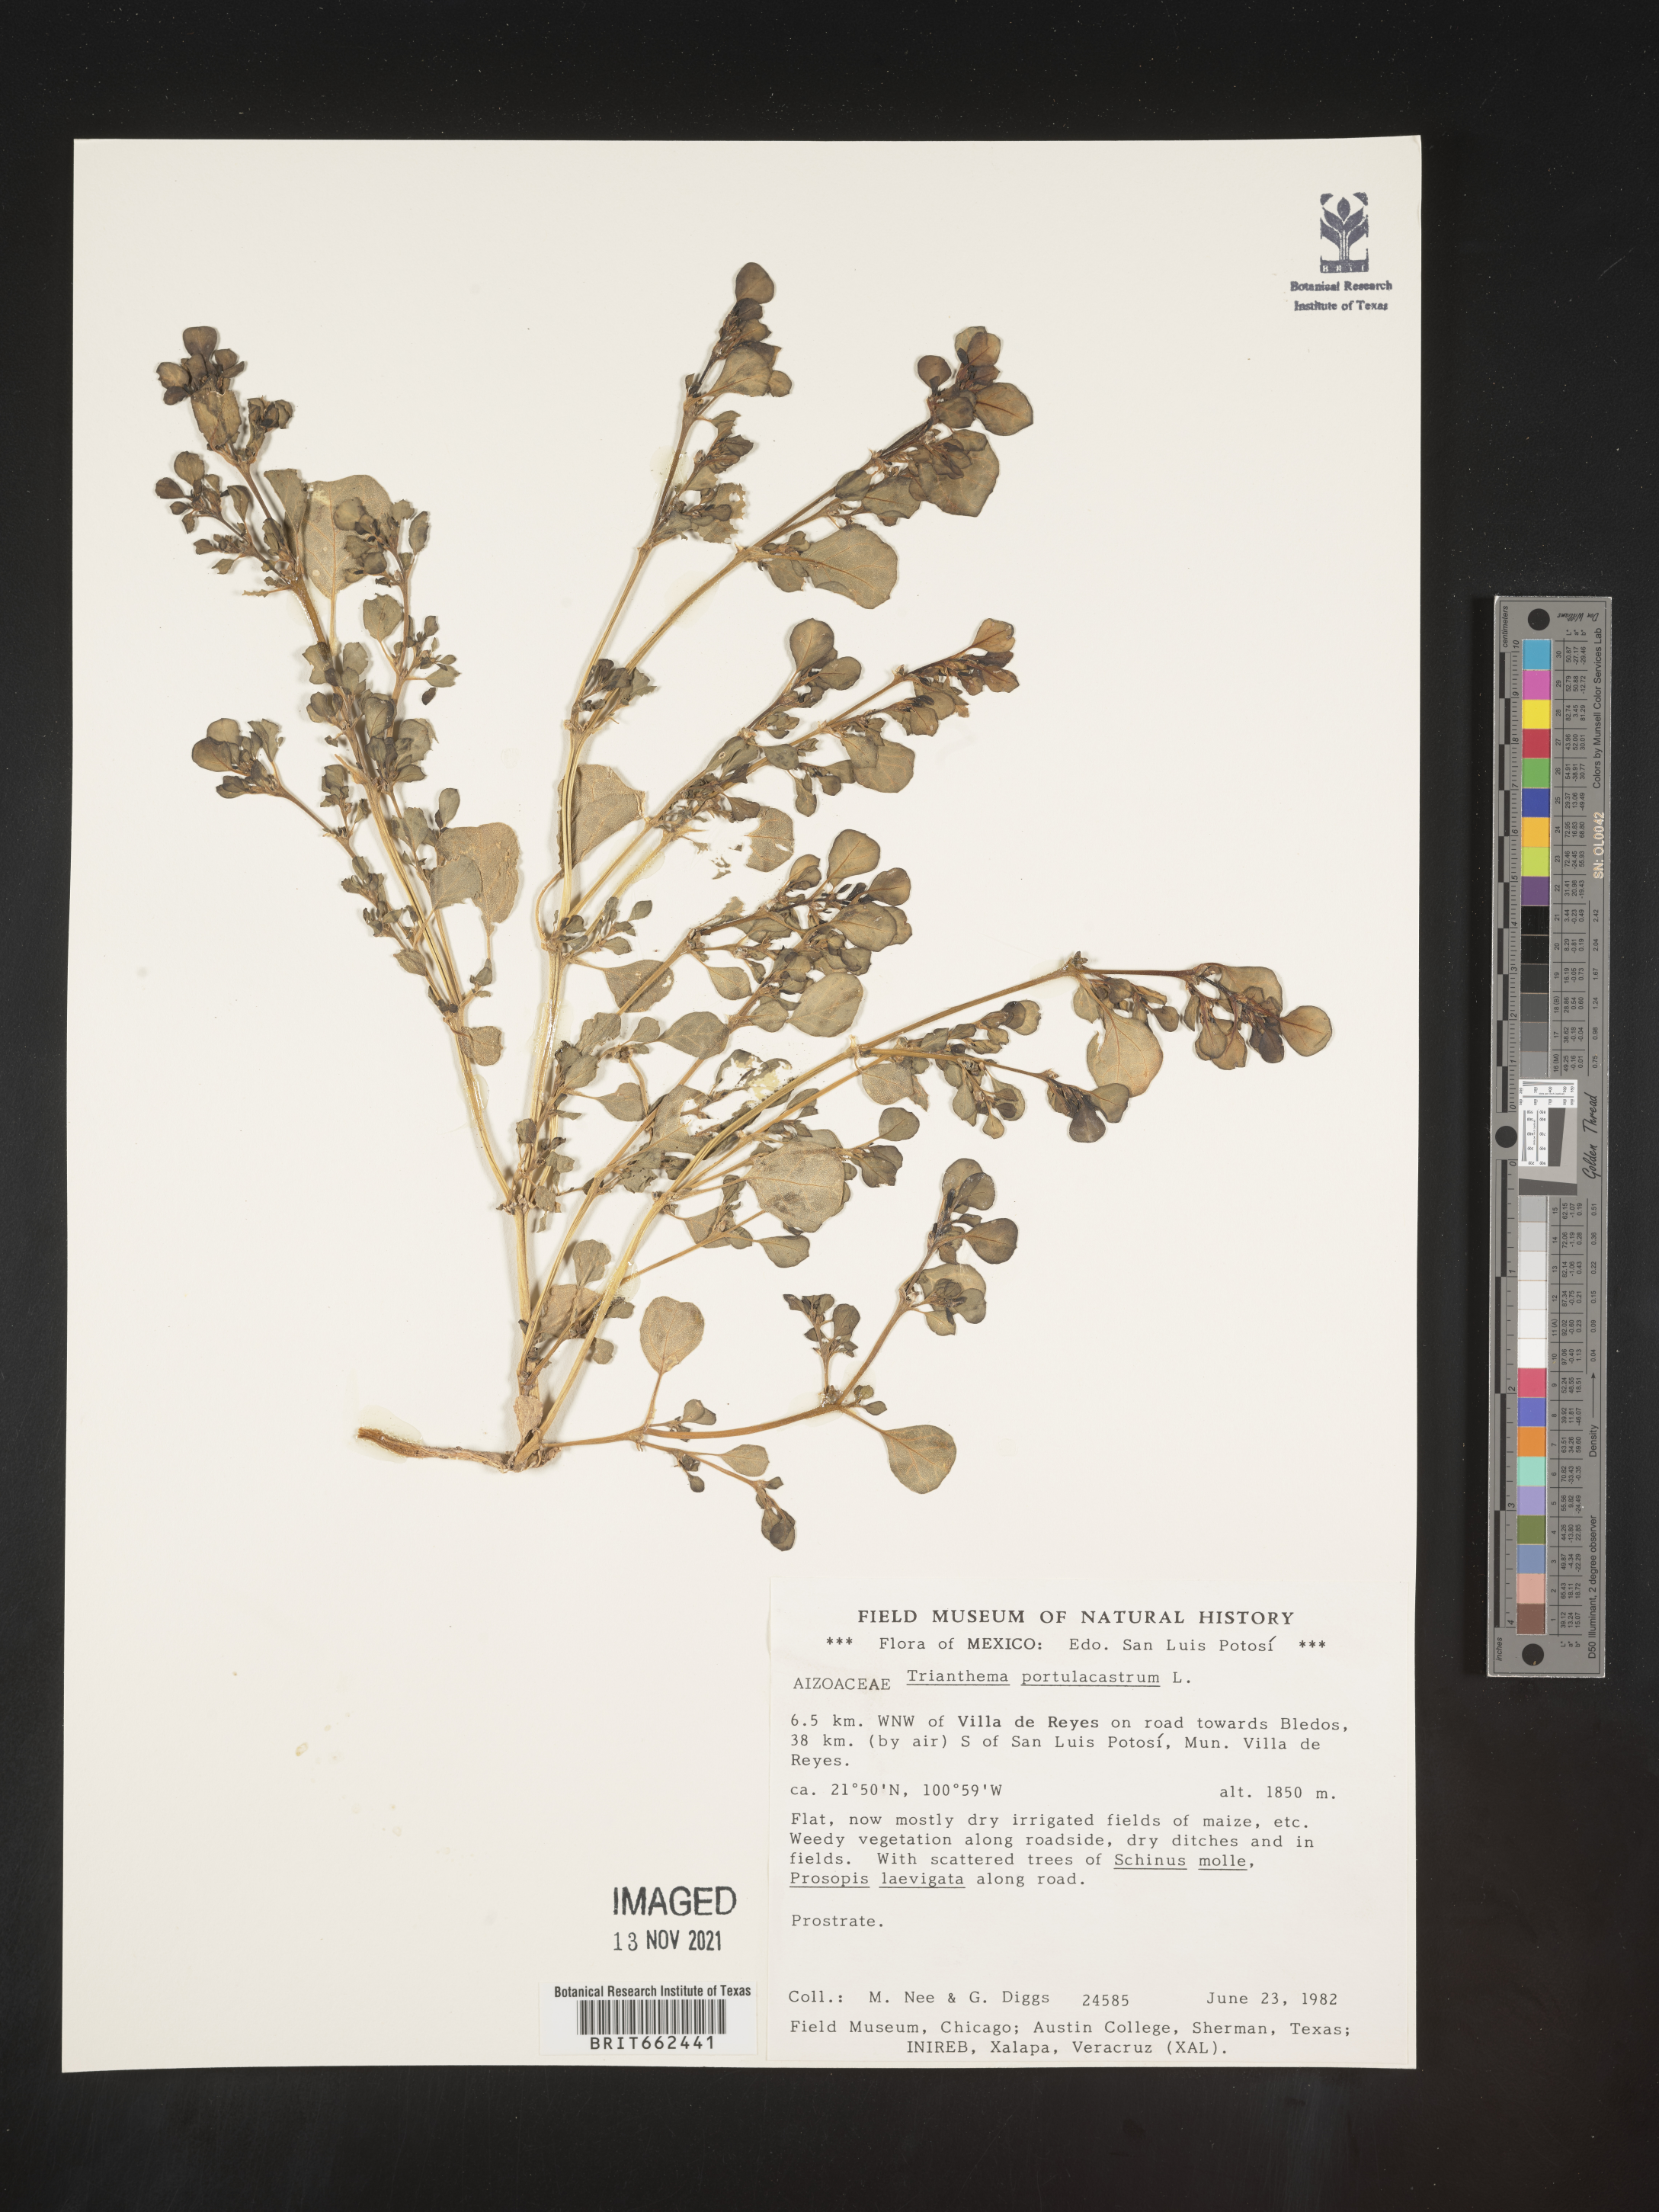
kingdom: Plantae
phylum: Tracheophyta
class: Magnoliopsida
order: Caryophyllales
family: Aizoaceae
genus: Trianthema
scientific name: Trianthema
